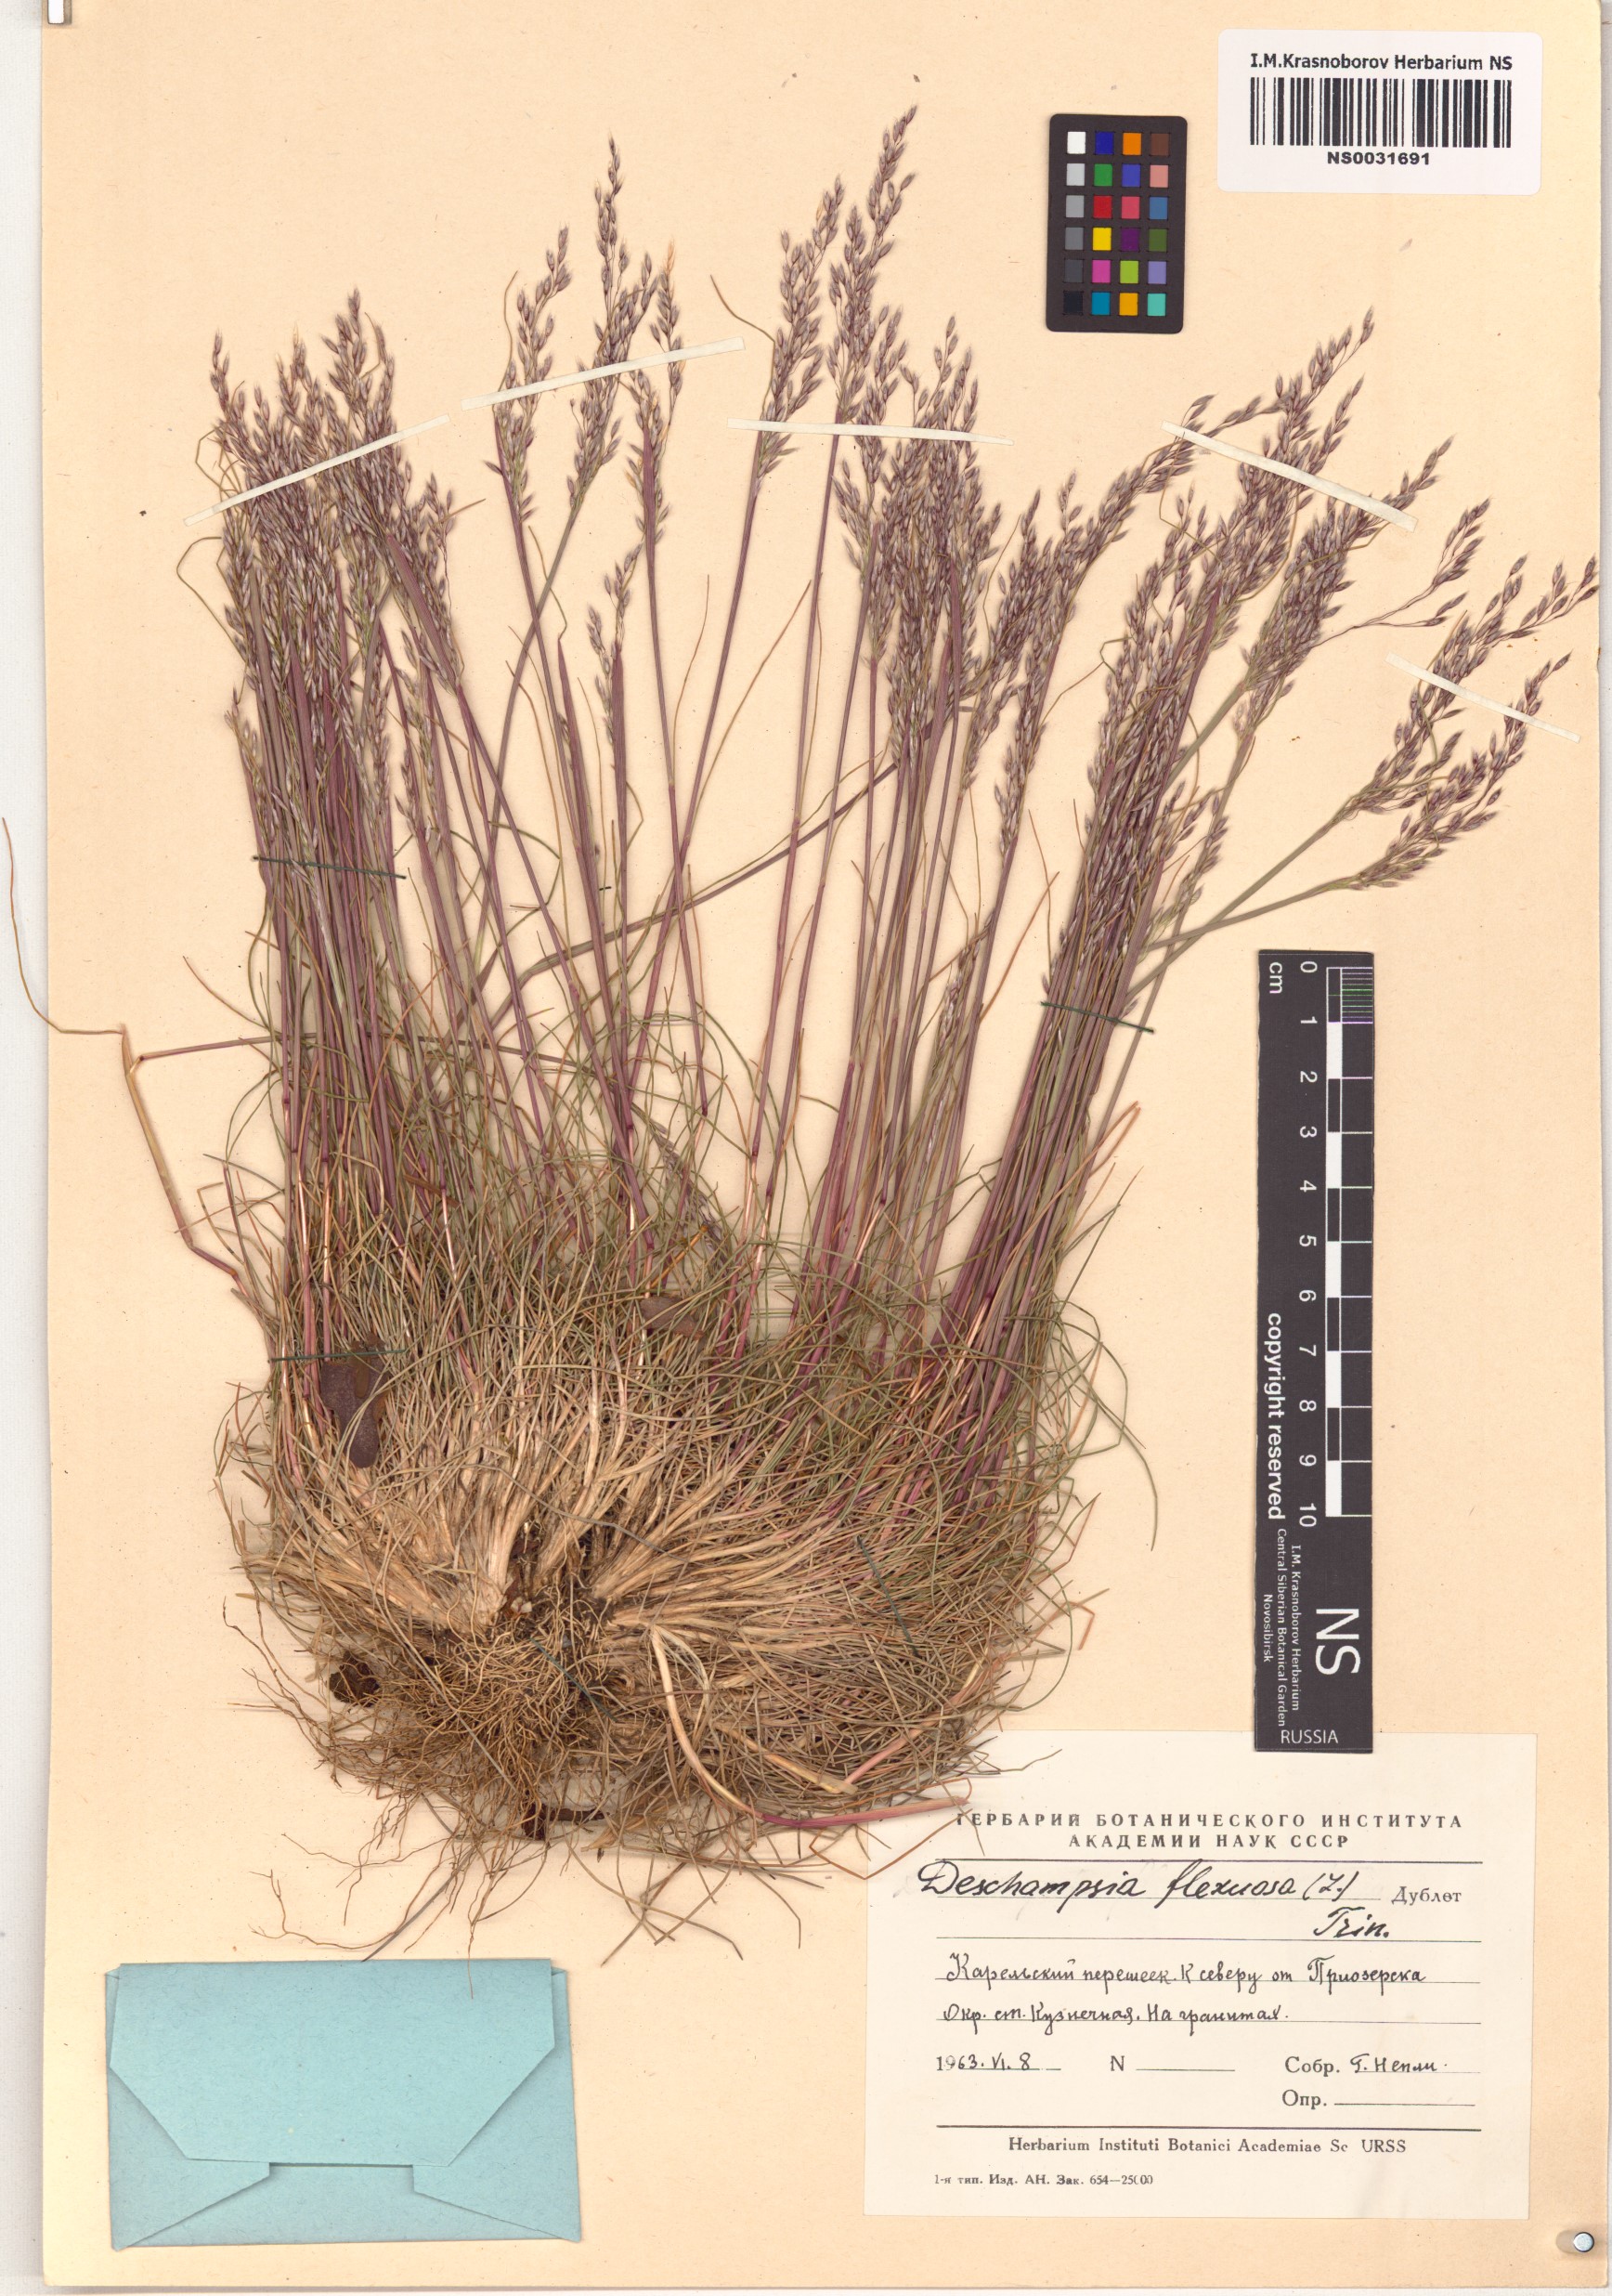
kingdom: Plantae
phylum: Tracheophyta
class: Liliopsida
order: Poales
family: Poaceae
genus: Avenella
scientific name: Avenella flexuosa
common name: Wavy hairgrass
